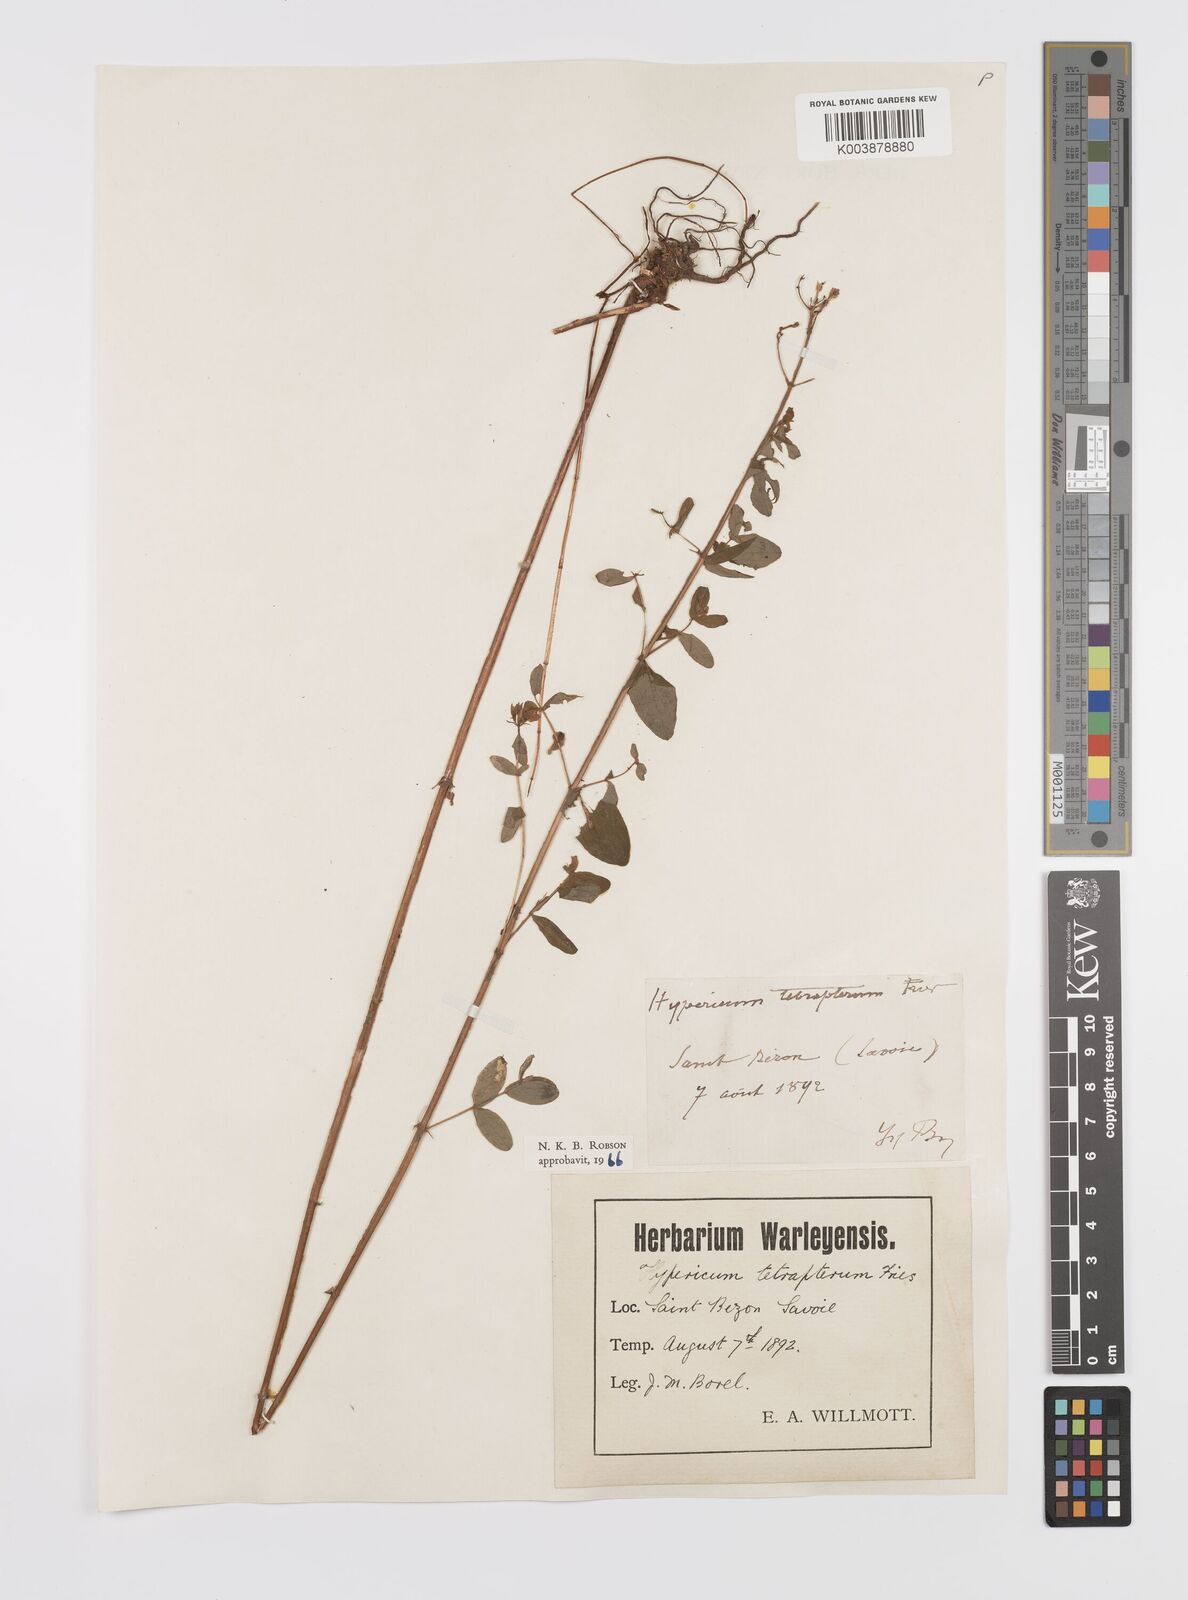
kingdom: Plantae
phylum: Tracheophyta
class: Magnoliopsida
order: Malpighiales
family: Hypericaceae
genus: Hypericum
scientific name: Hypericum tetrapterum
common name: Square-stalked st. john's-wort
